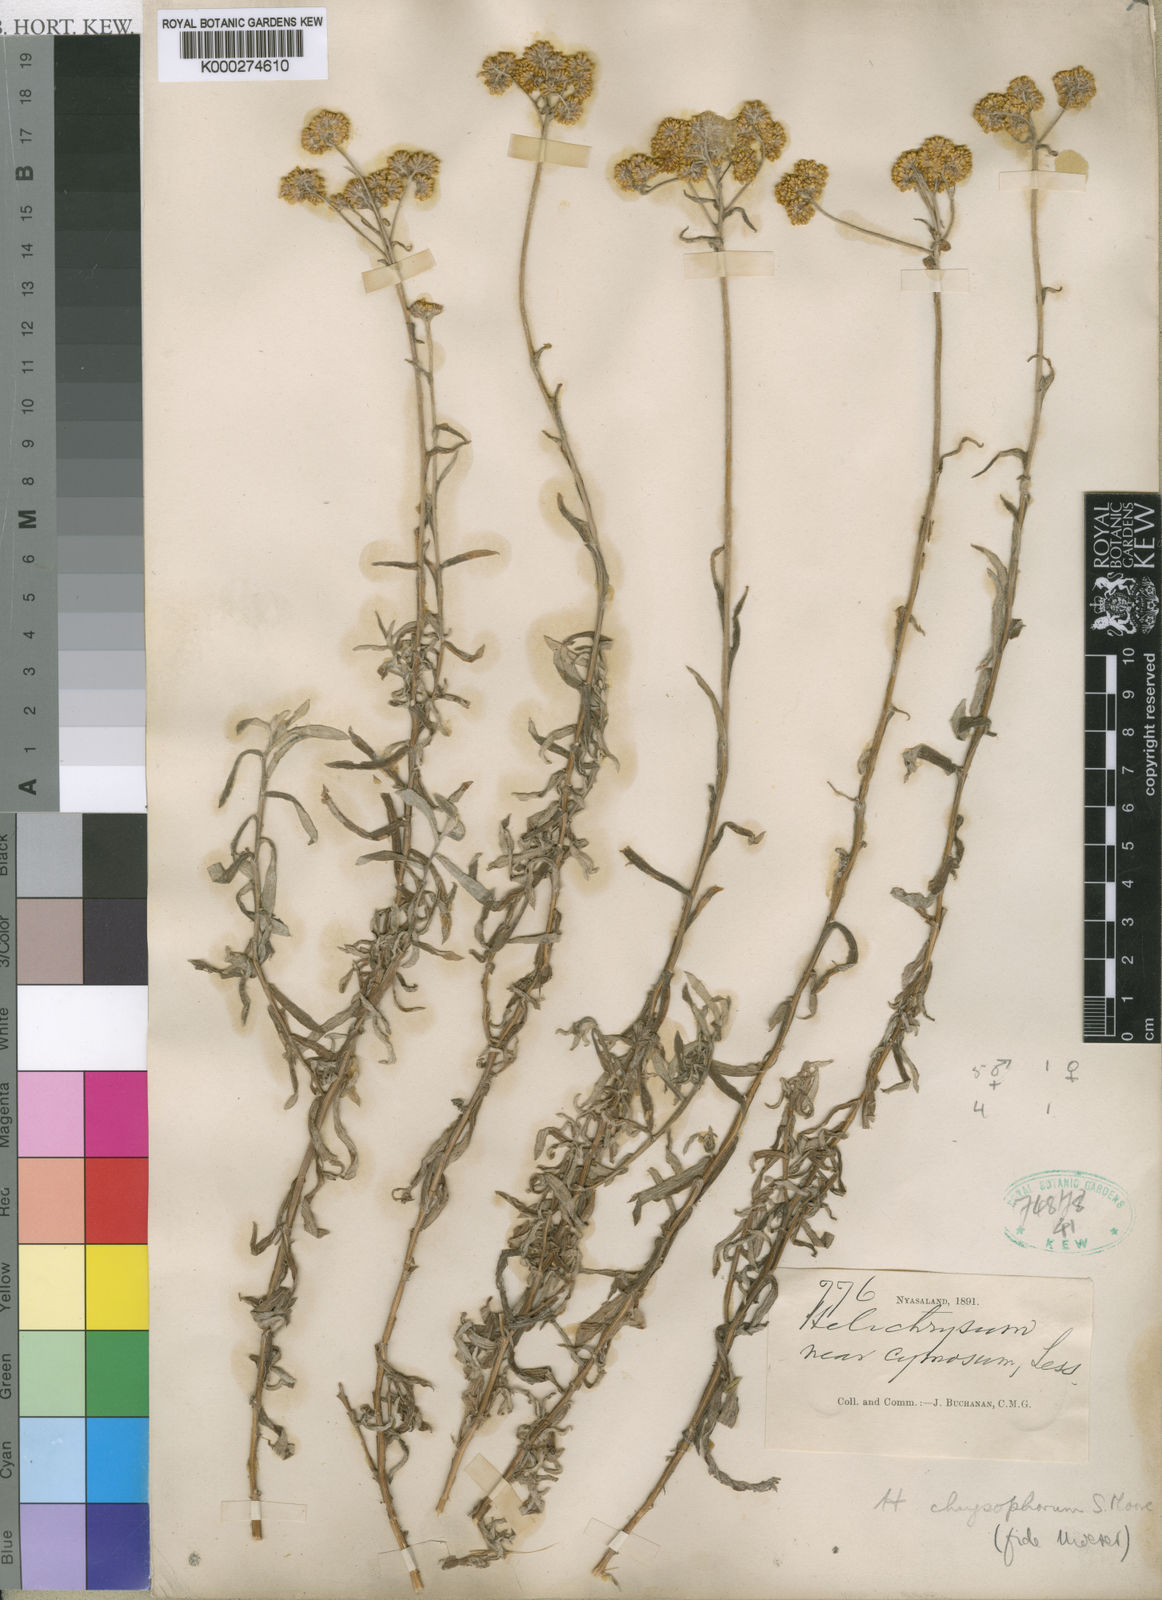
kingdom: Plantae
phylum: Tracheophyta
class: Magnoliopsida
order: Asterales
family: Asteraceae
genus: Helichrysum
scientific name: Helichrysum chrysophorum
